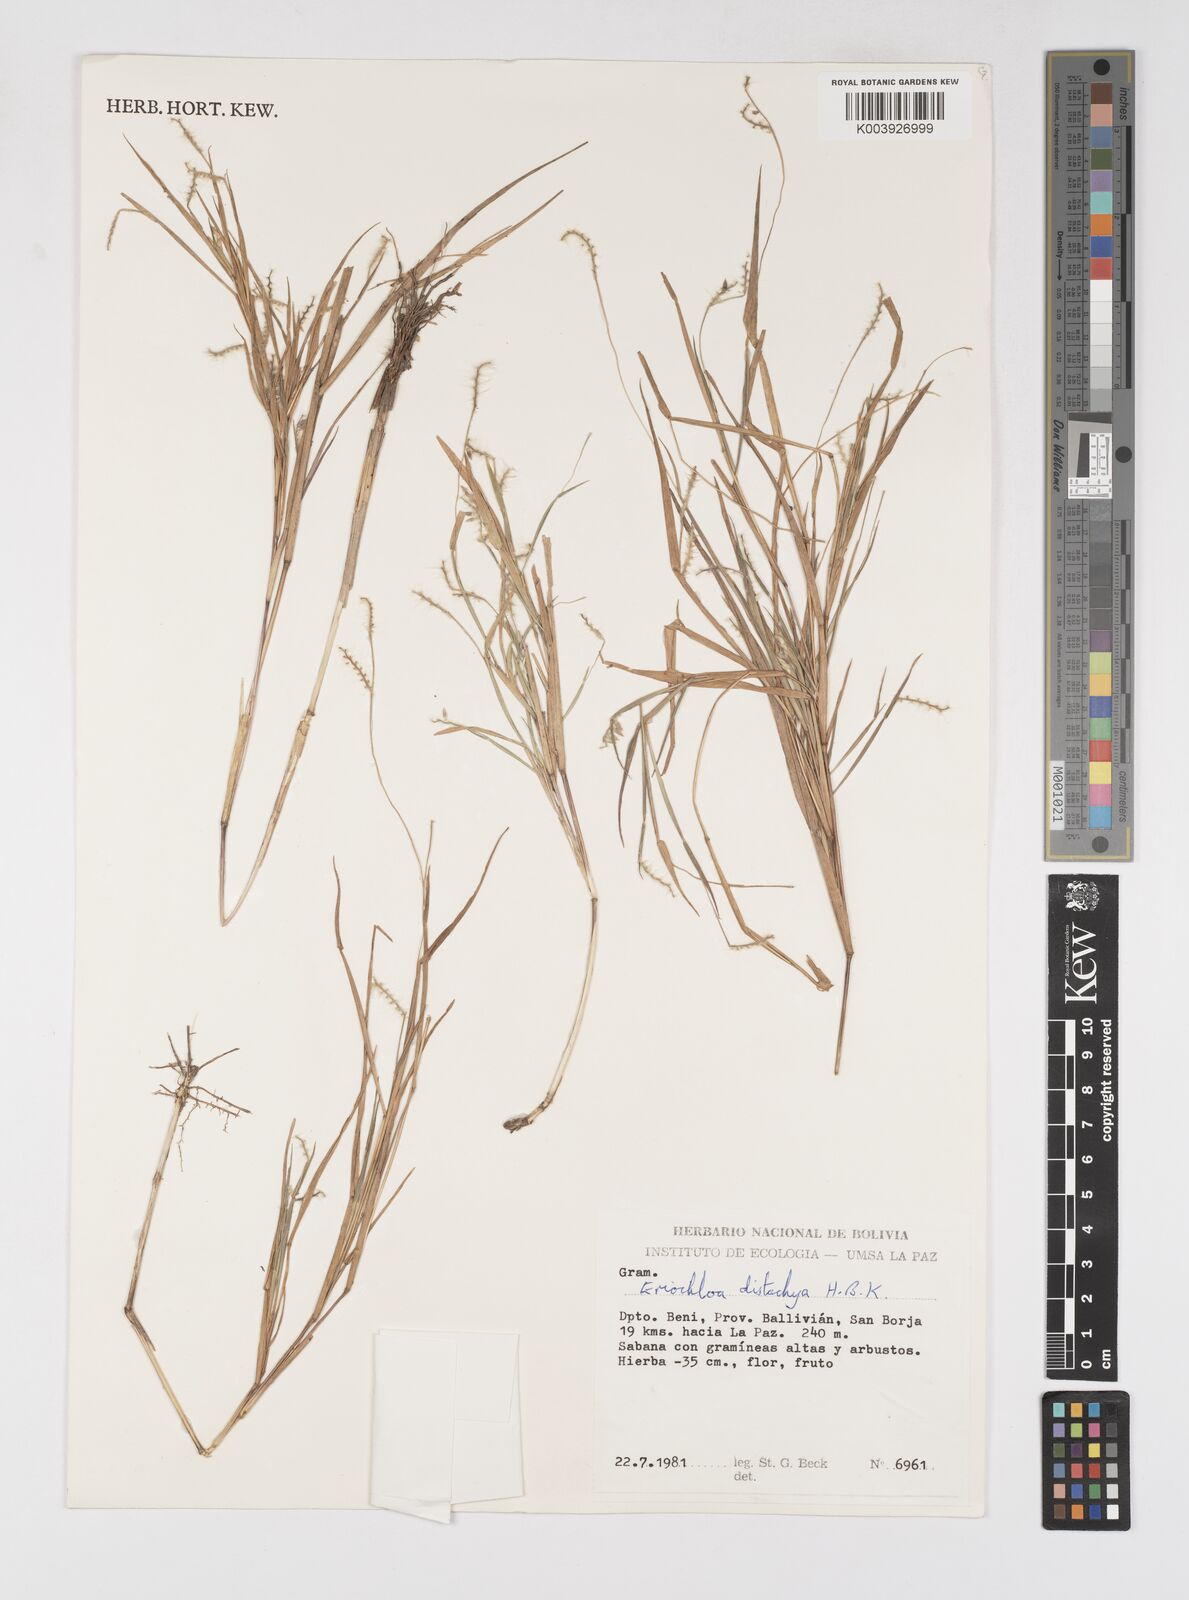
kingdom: Plantae
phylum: Tracheophyta
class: Liliopsida
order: Poales
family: Poaceae
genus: Eriochloa
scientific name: Eriochloa distachya
